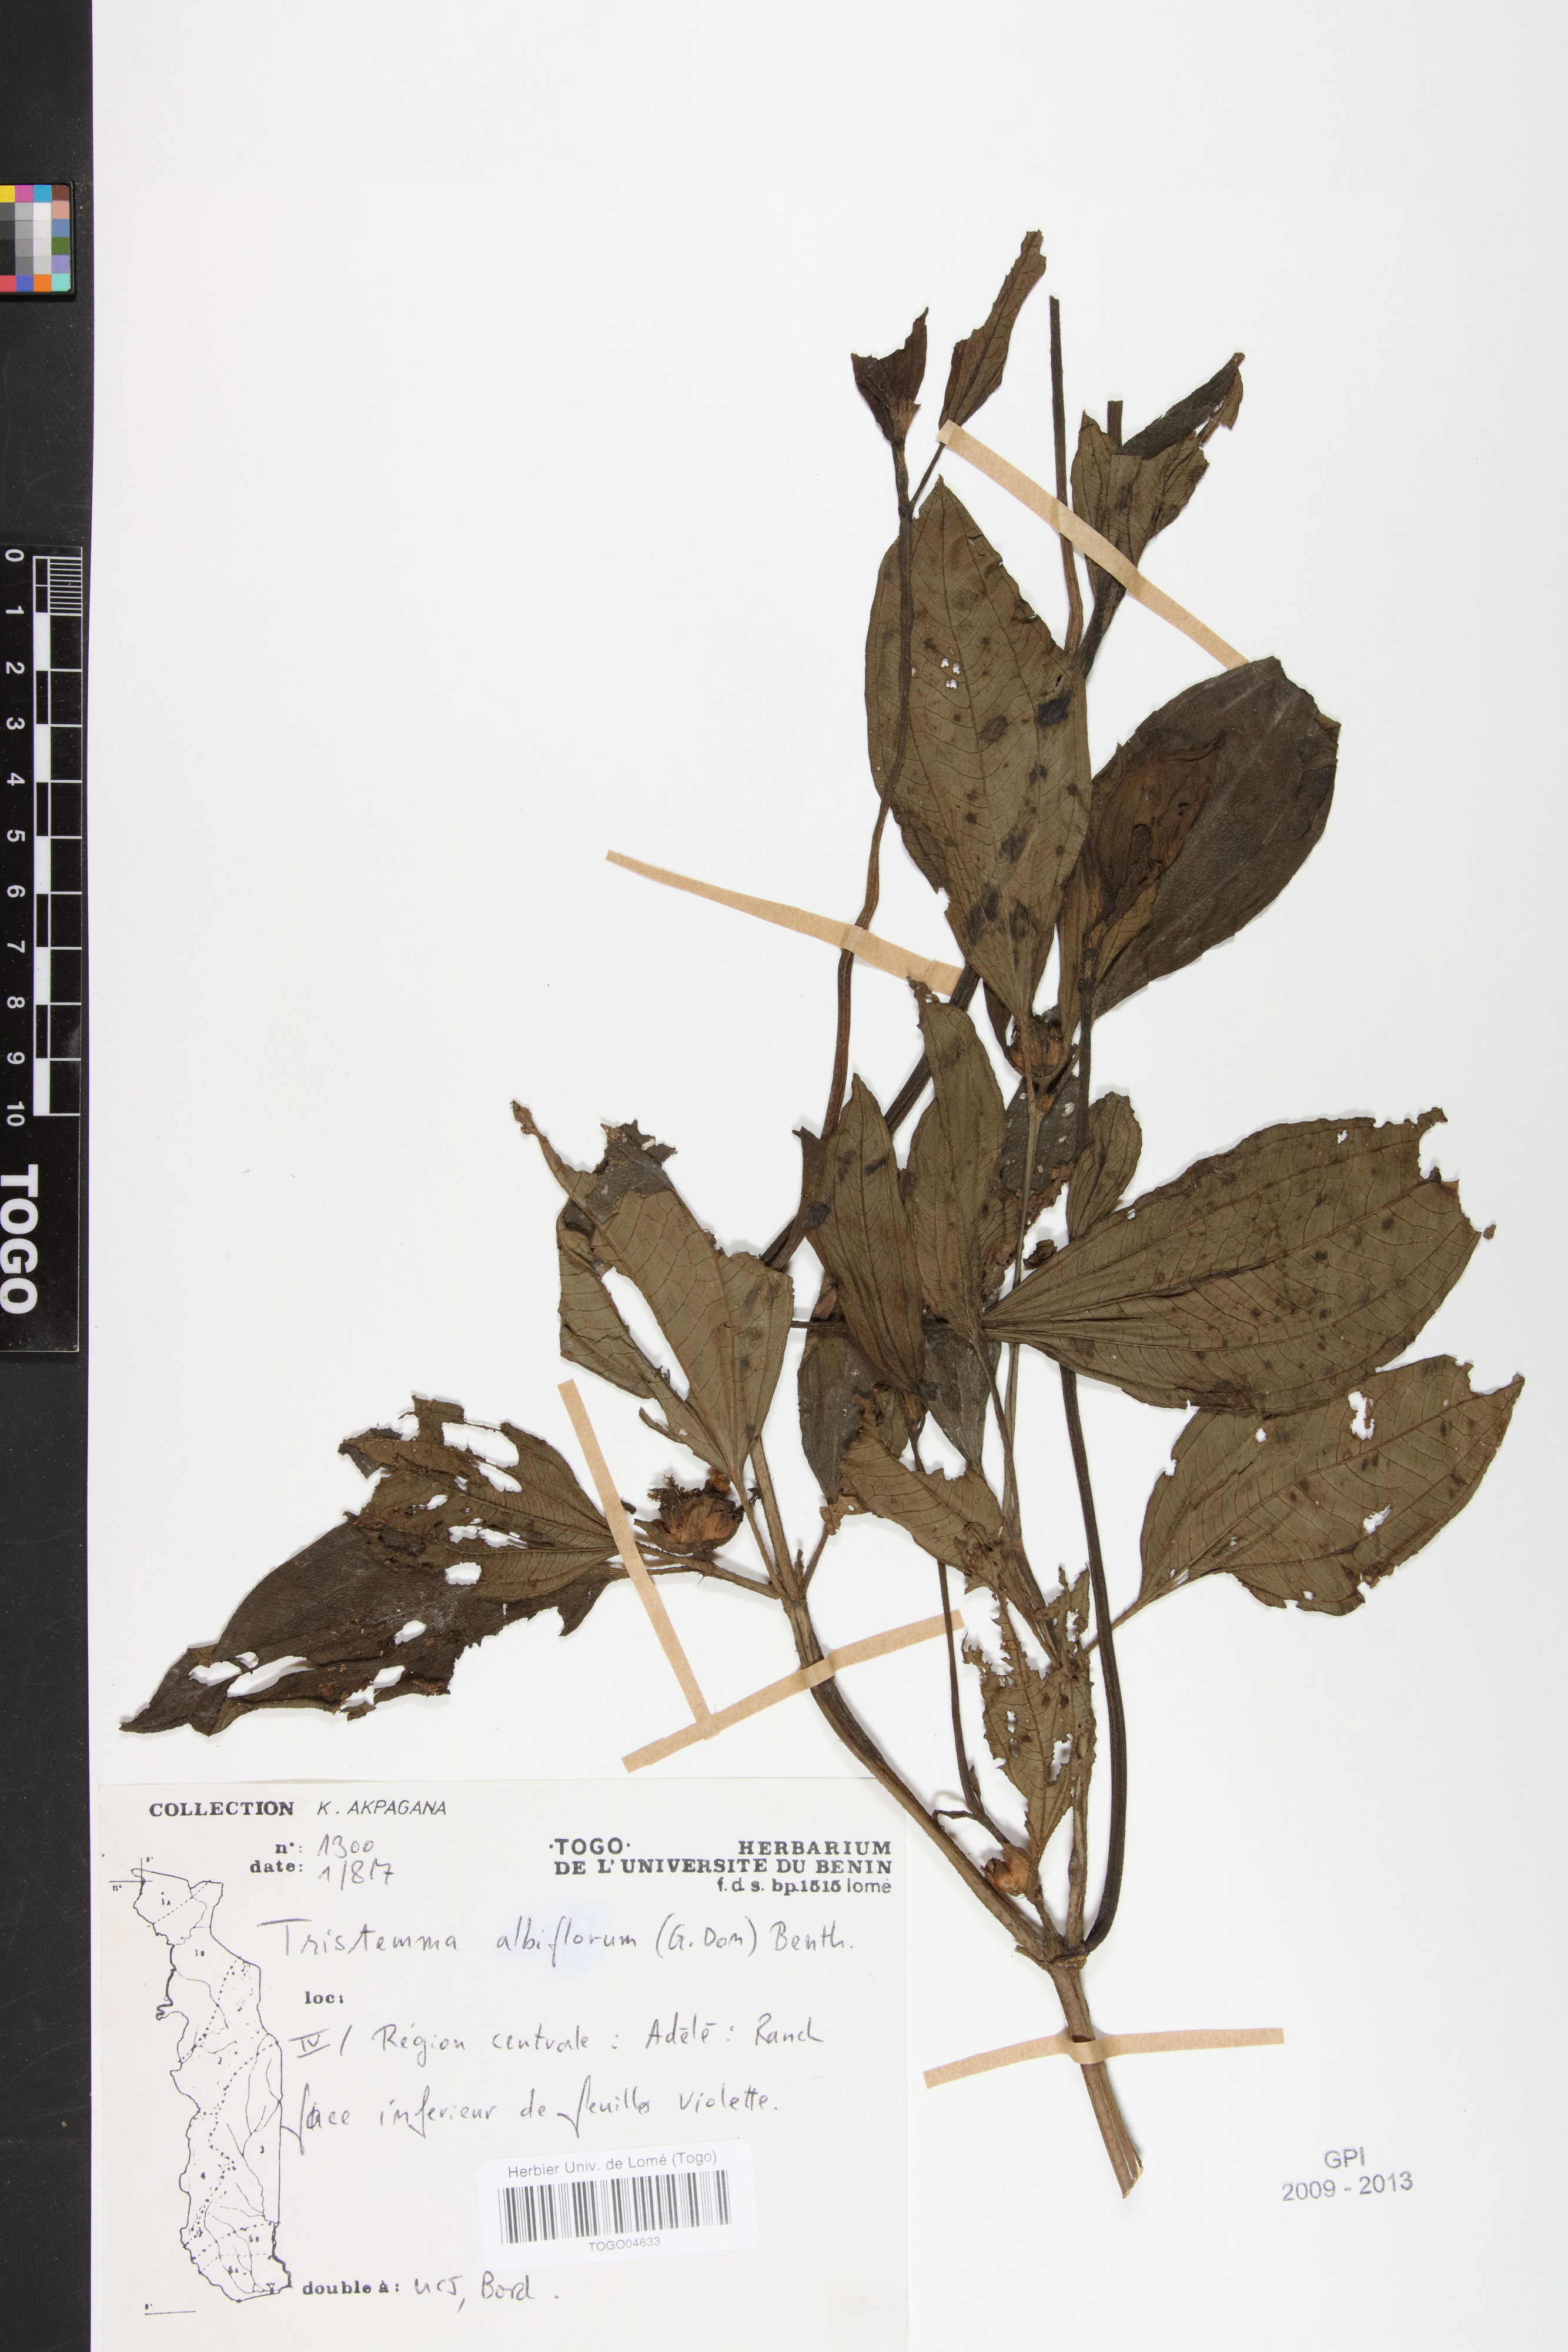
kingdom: Plantae
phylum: Tracheophyta
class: Magnoliopsida
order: Myrtales
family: Melastomataceae
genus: Tristemma
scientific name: Tristemma albiflorum
